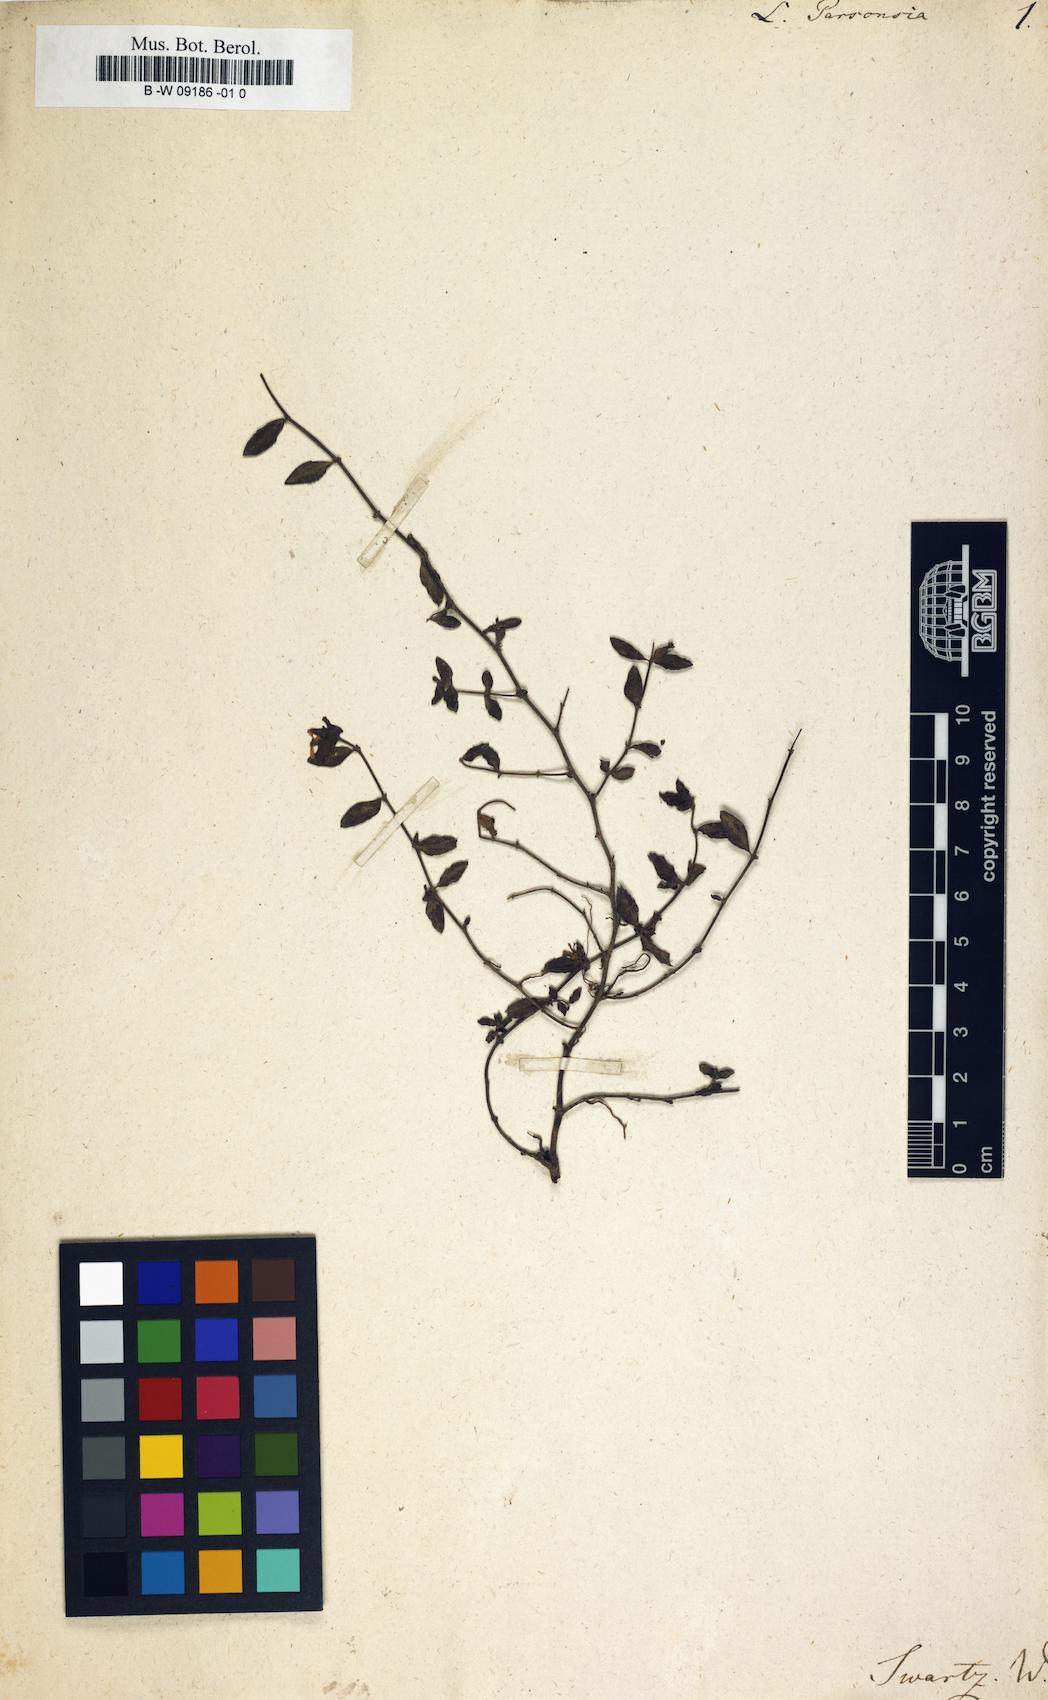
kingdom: Plantae
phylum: Tracheophyta
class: Magnoliopsida
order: Myrtales
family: Lythraceae
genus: Cuphea
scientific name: Cuphea parsonsia
